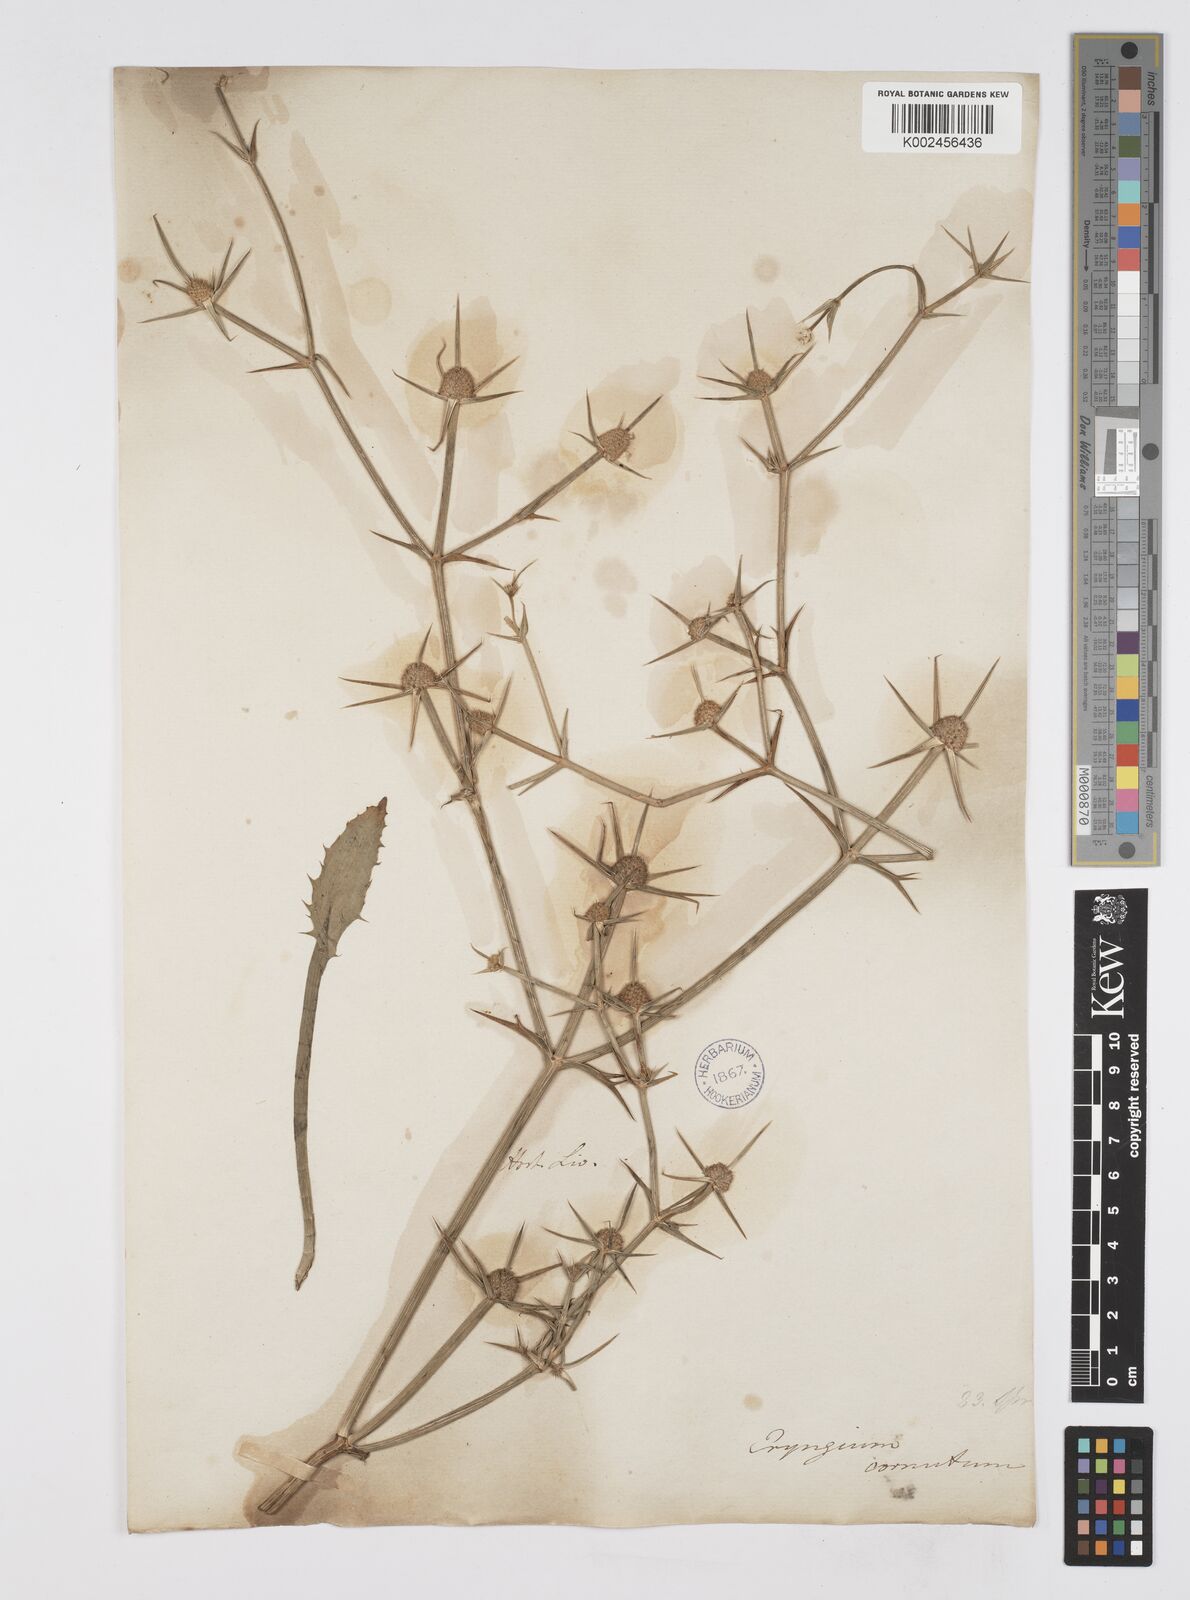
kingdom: Plantae
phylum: Tracheophyta
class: Magnoliopsida
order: Apiales
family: Apiaceae
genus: Eryngium
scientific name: Eryngium corniculatum
